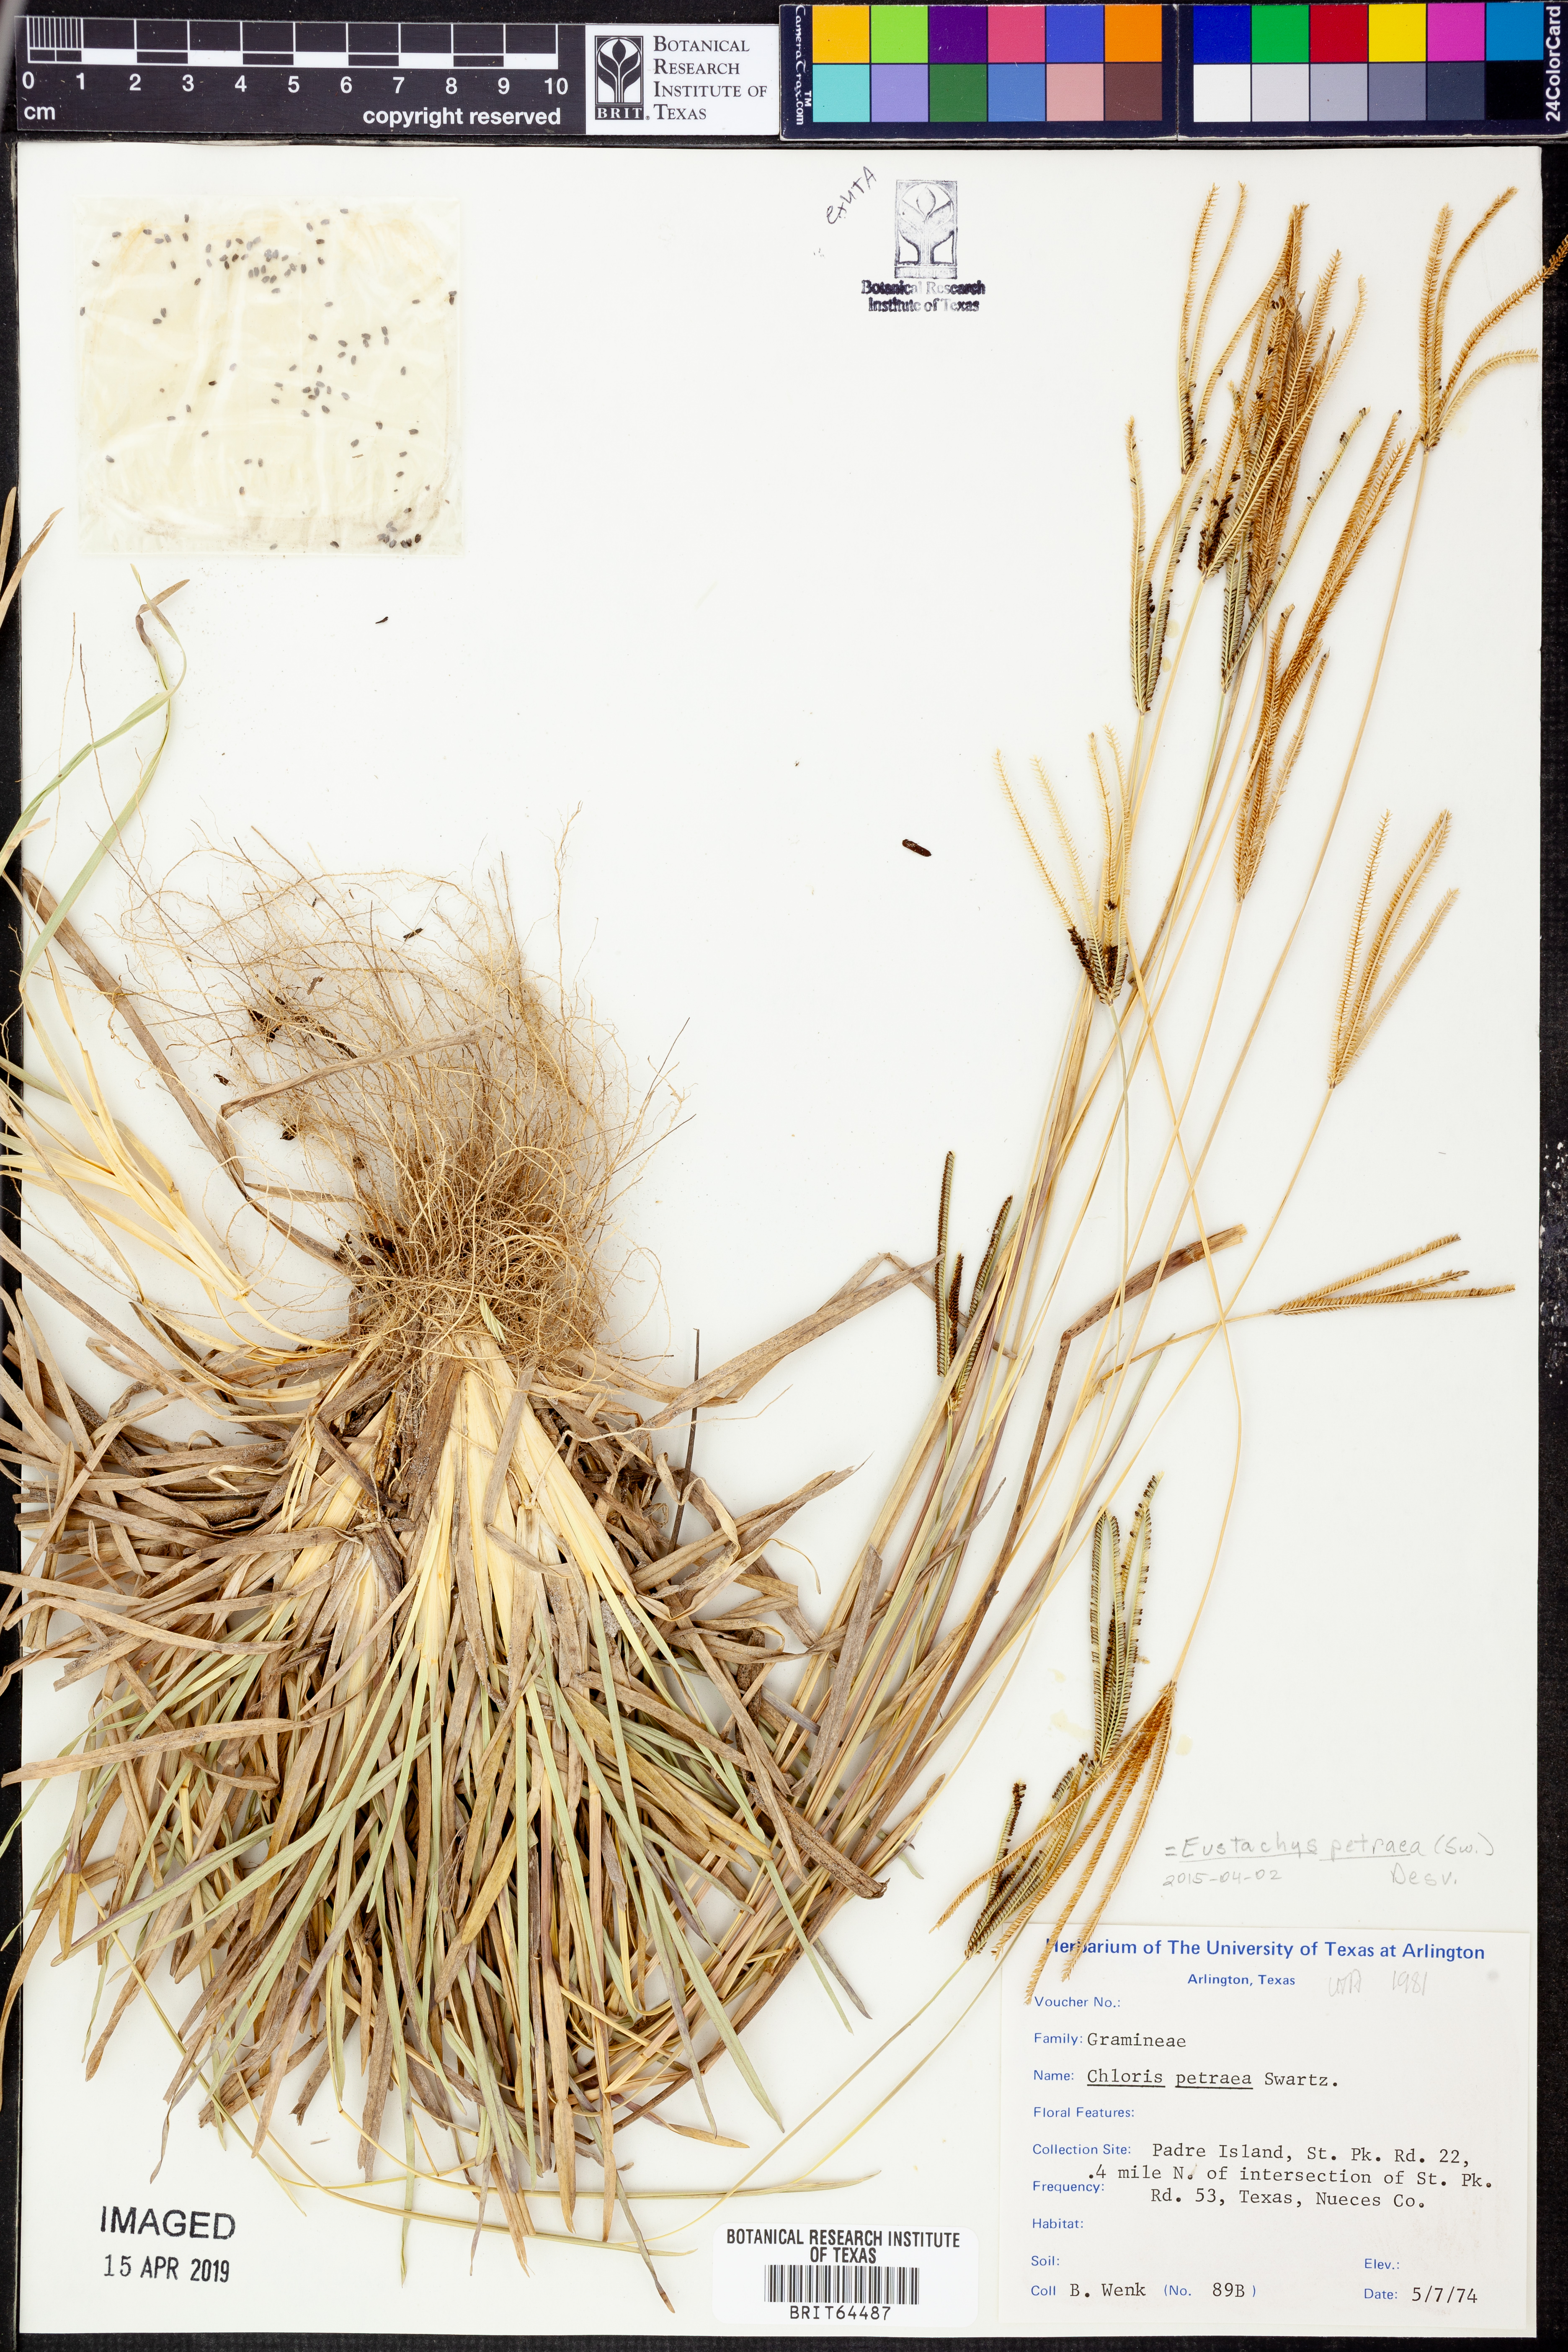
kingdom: Plantae
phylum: Tracheophyta
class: Liliopsida
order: Poales
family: Poaceae
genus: Eustachys
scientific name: Eustachys petraea
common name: Pinewoods fingergrass
